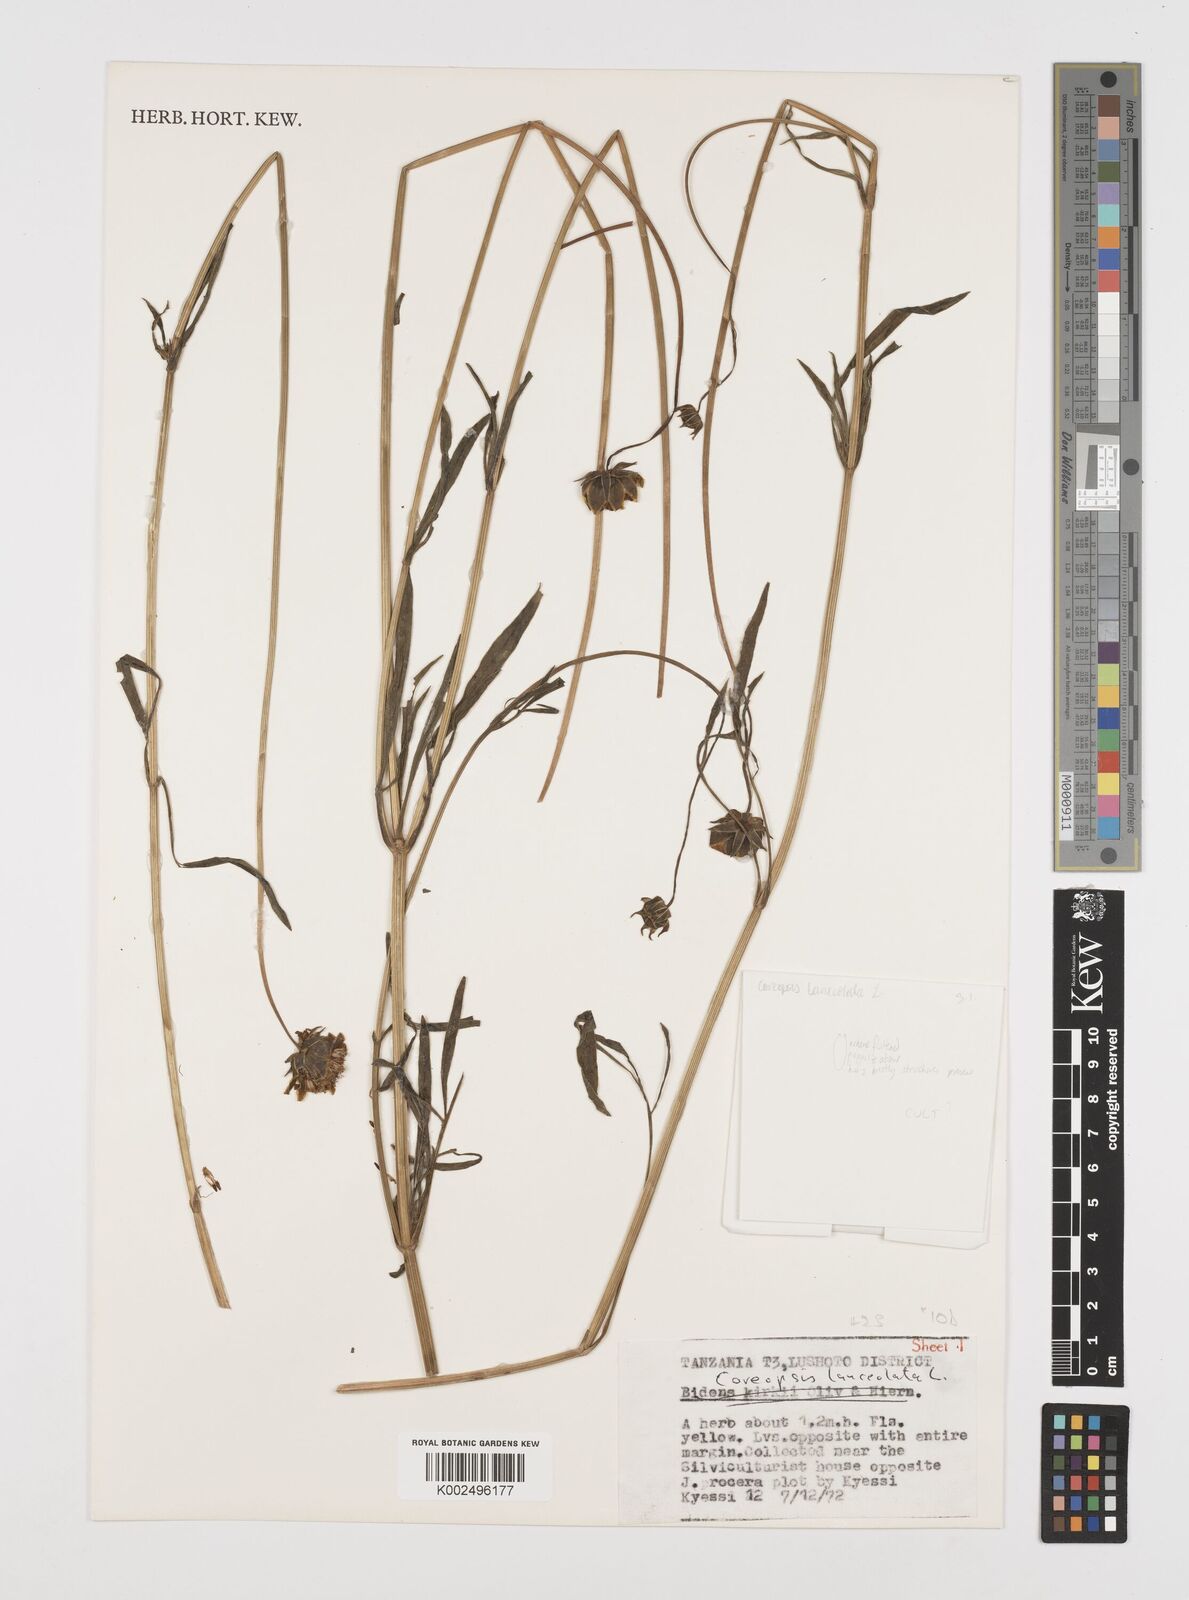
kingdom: Plantae
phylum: Tracheophyta
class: Magnoliopsida
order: Asterales
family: Asteraceae
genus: Coreopsis
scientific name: Coreopsis grandiflora
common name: Large-flowered tickseed
